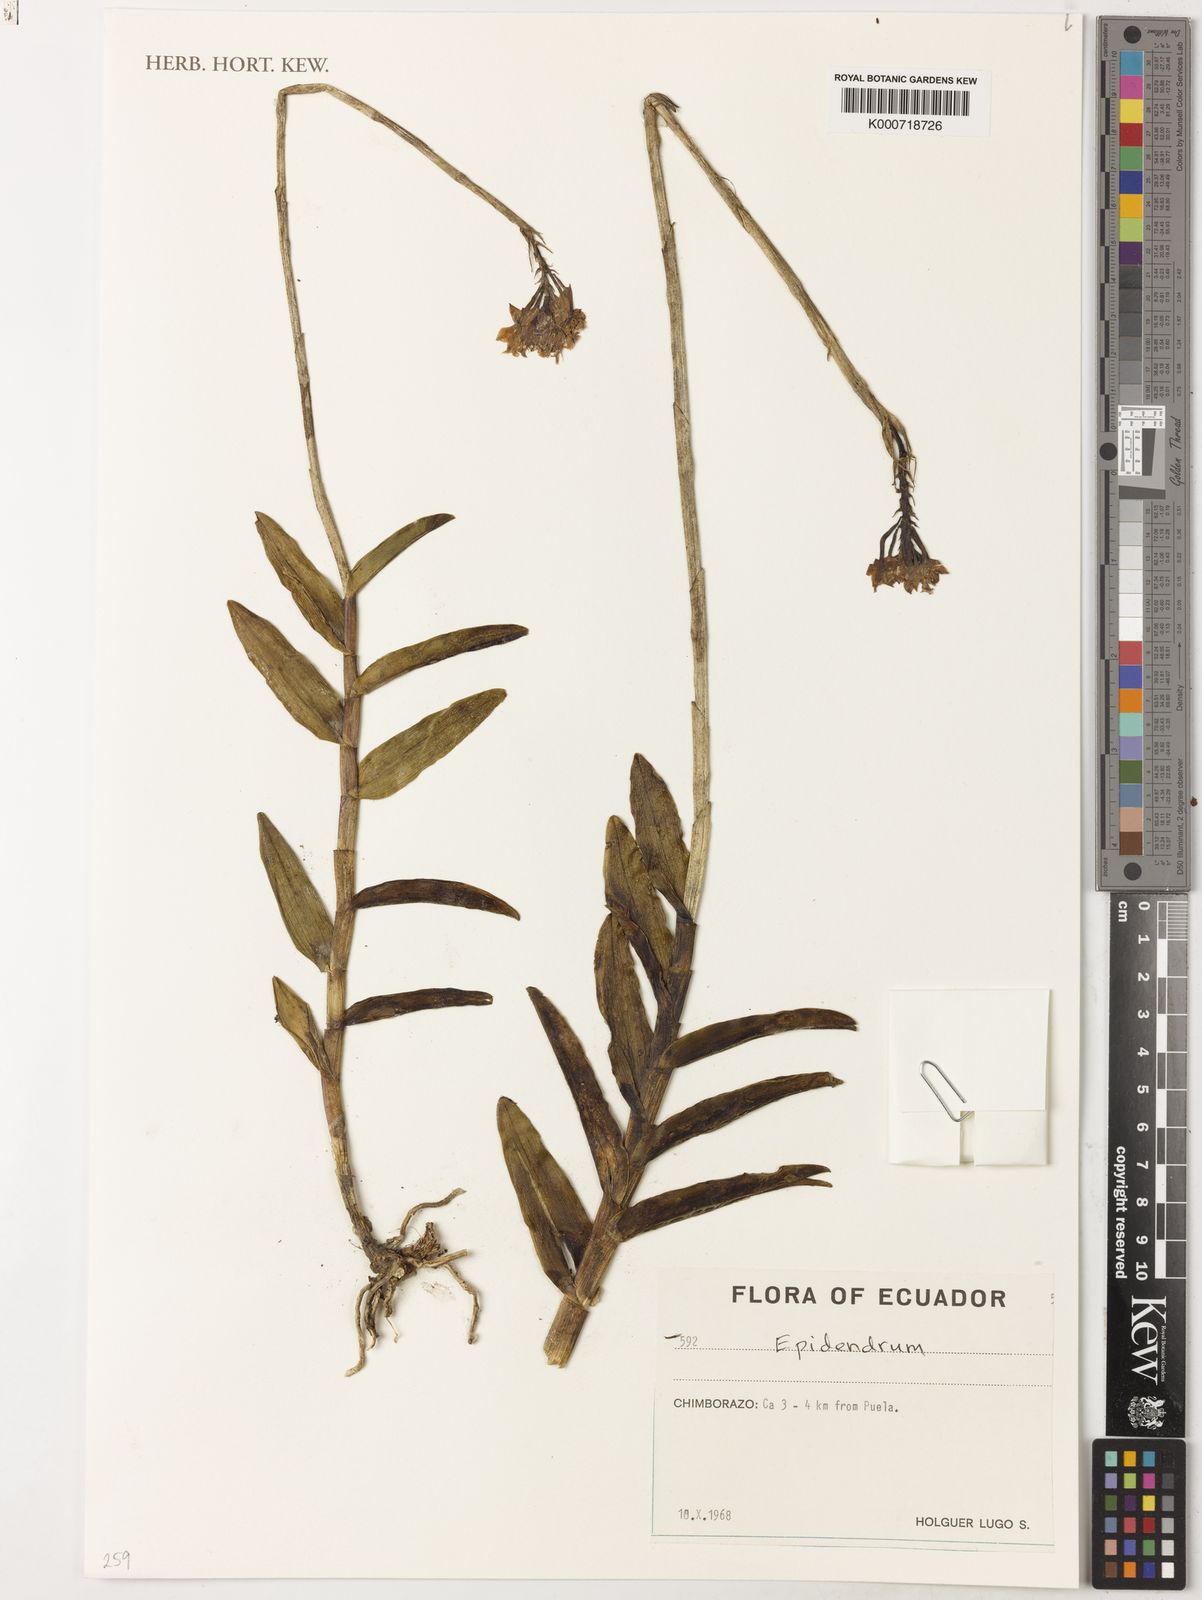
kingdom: Plantae
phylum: Tracheophyta
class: Liliopsida
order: Asparagales
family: Orchidaceae
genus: Epidendrum
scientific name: Epidendrum
